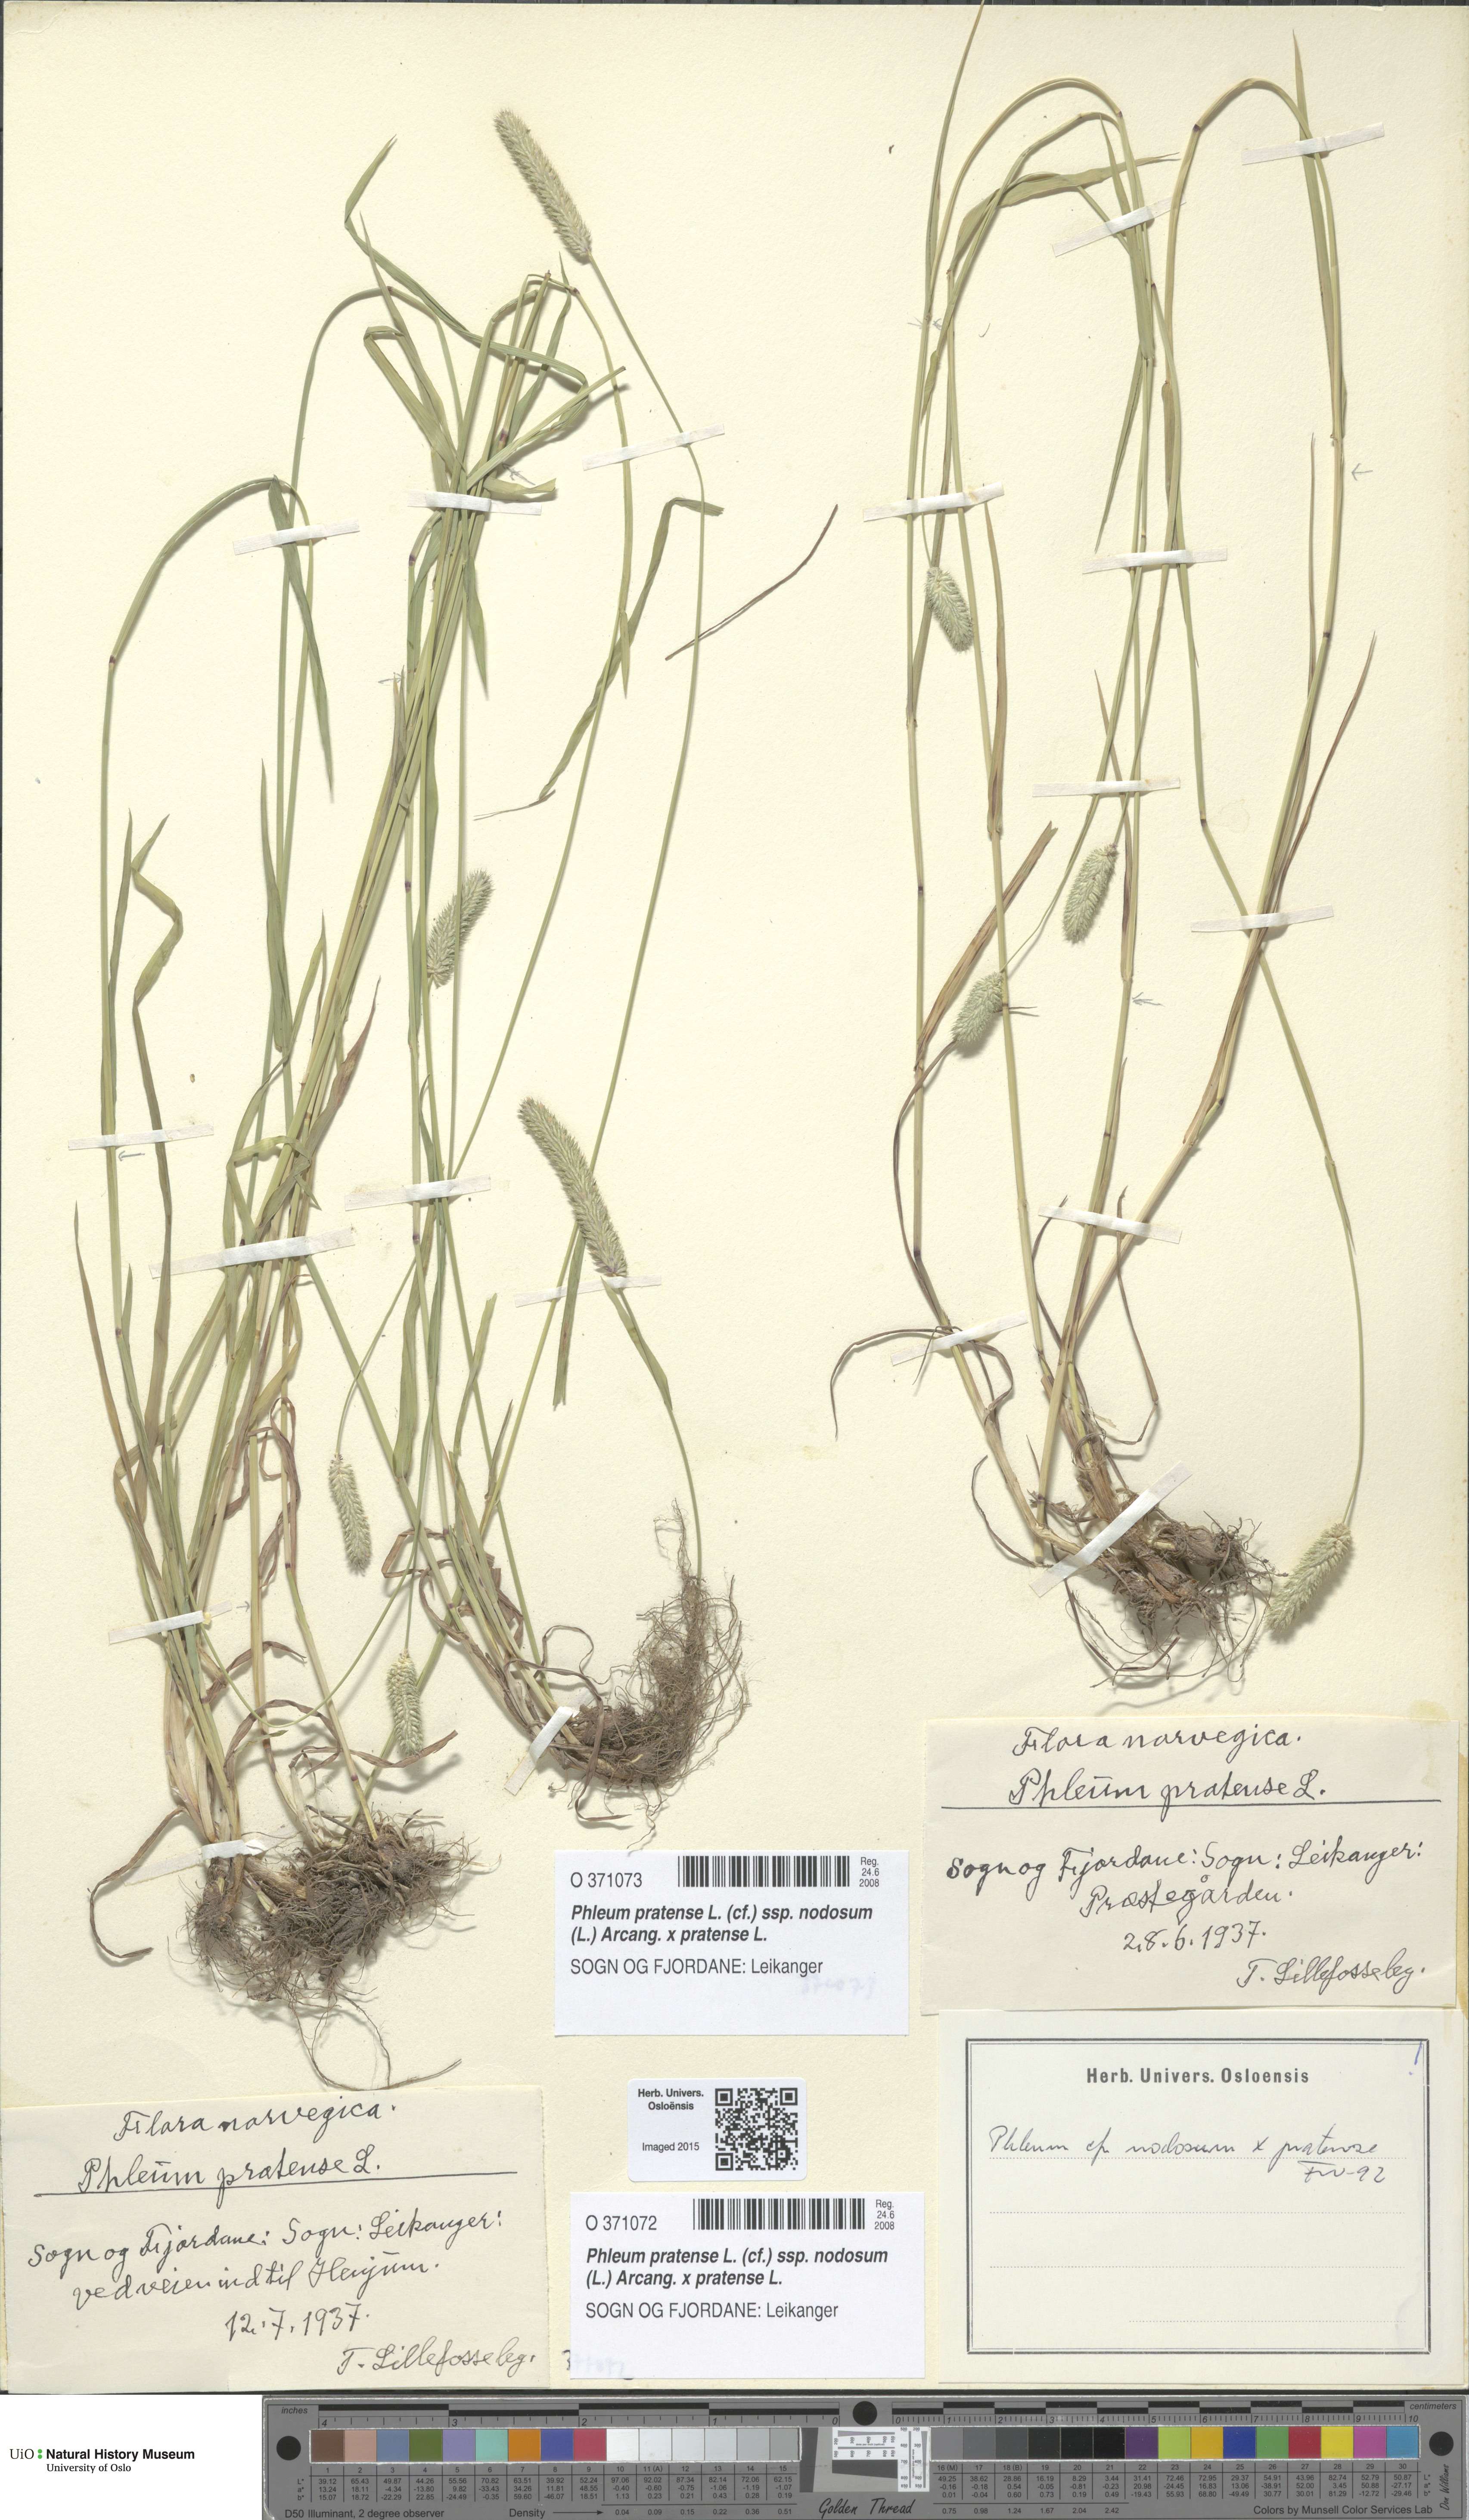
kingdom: Plantae
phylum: Tracheophyta
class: Liliopsida
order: Poales
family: Poaceae
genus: Phleum
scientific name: Phleum
